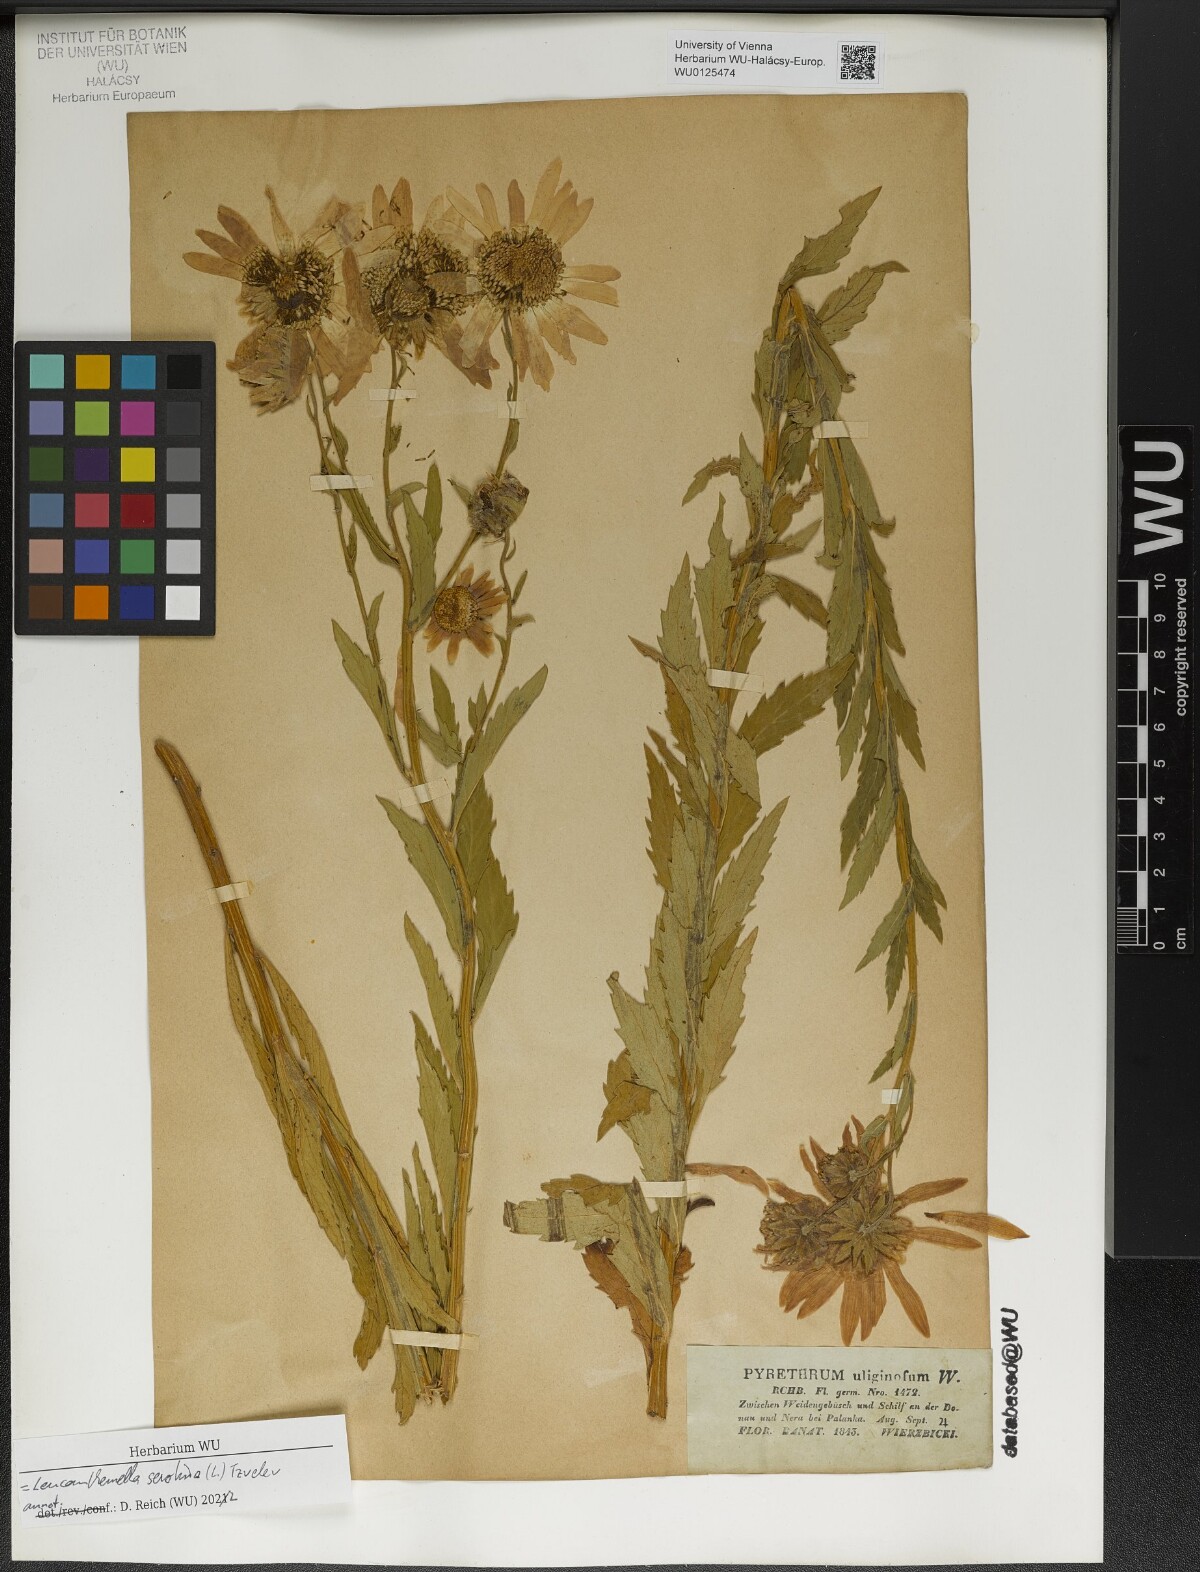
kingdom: Plantae
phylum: Tracheophyta
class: Magnoliopsida
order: Asterales
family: Asteraceae
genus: Leucanthemella
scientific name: Leucanthemella serotina
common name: Autumn oxeye
